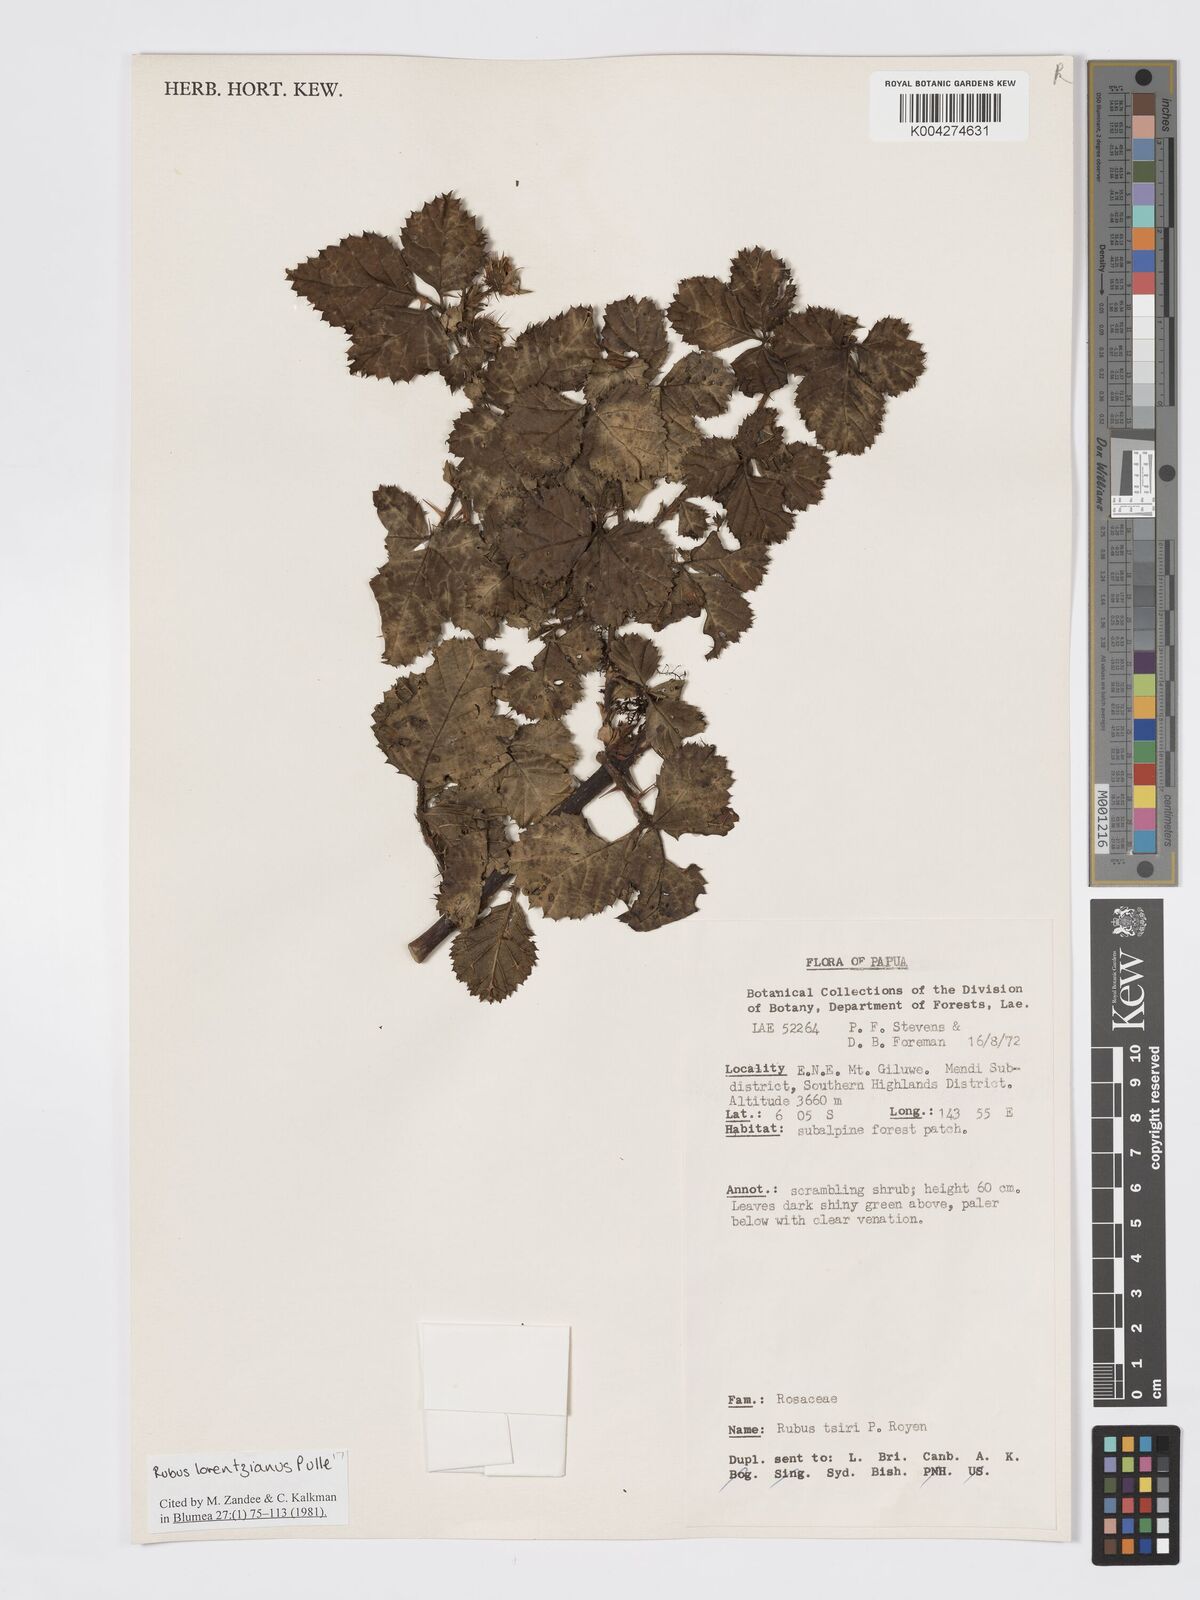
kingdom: Plantae
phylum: Tracheophyta
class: Magnoliopsida
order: Rosales
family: Rosaceae
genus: Rubus
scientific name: Rubus lorentzianus
